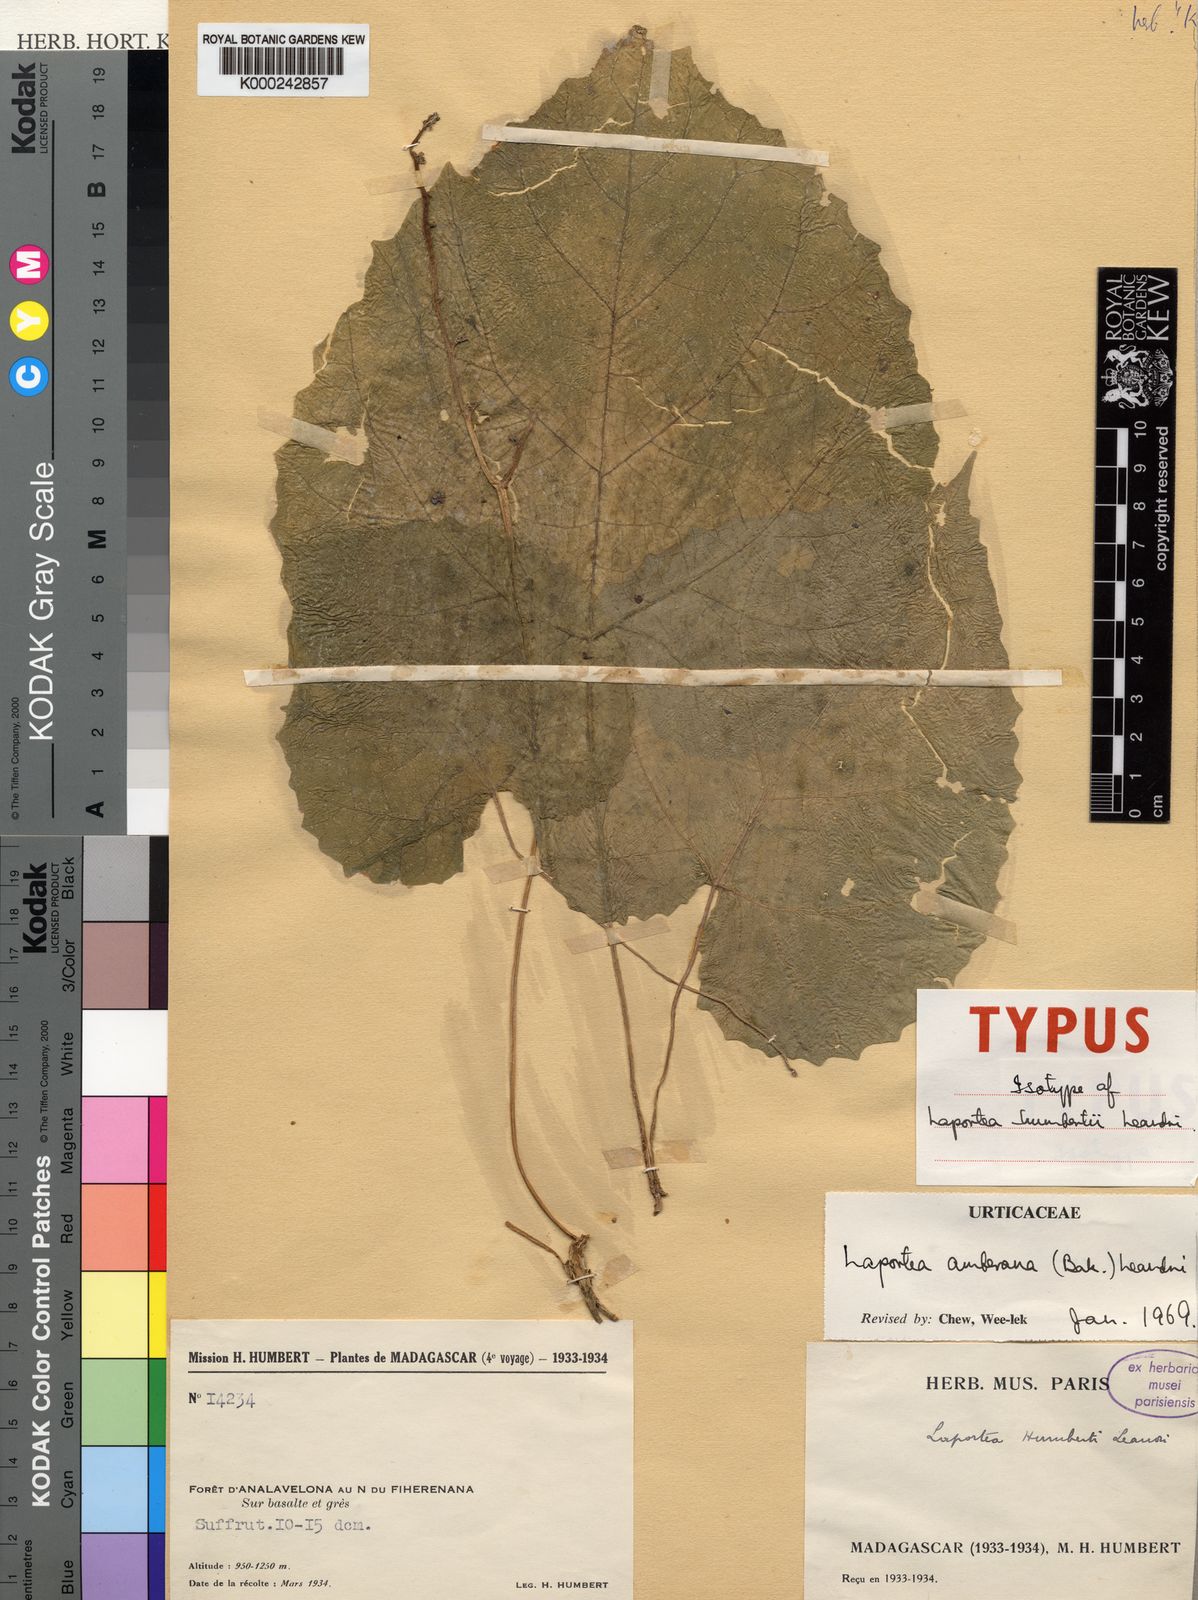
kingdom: Plantae
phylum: Tracheophyta
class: Magnoliopsida
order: Rosales
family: Urticaceae
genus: Laportea
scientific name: Laportea amberana
